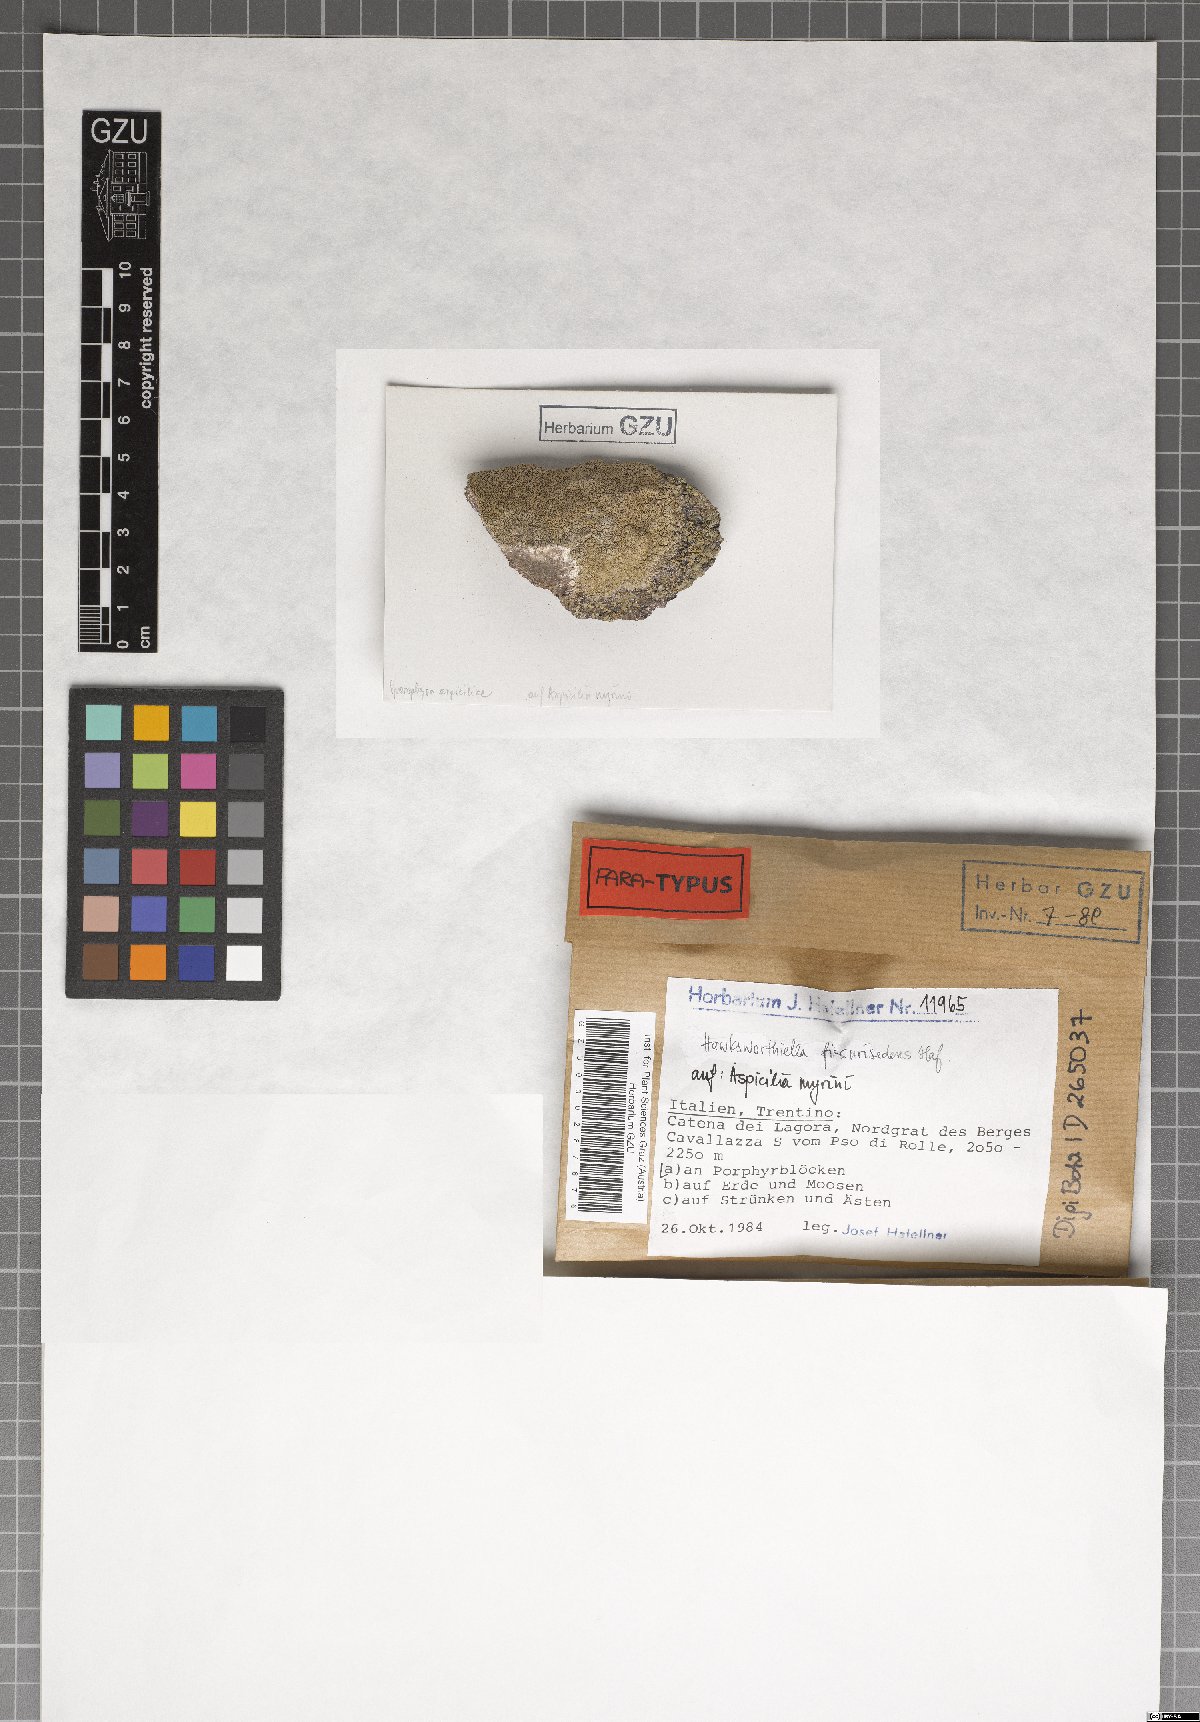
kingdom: Fungi
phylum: Ascomycota
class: Eurotiomycetes
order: Verrucariales
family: Adelococcaceae
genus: Sagediopsis
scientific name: Sagediopsis fissurisedens
